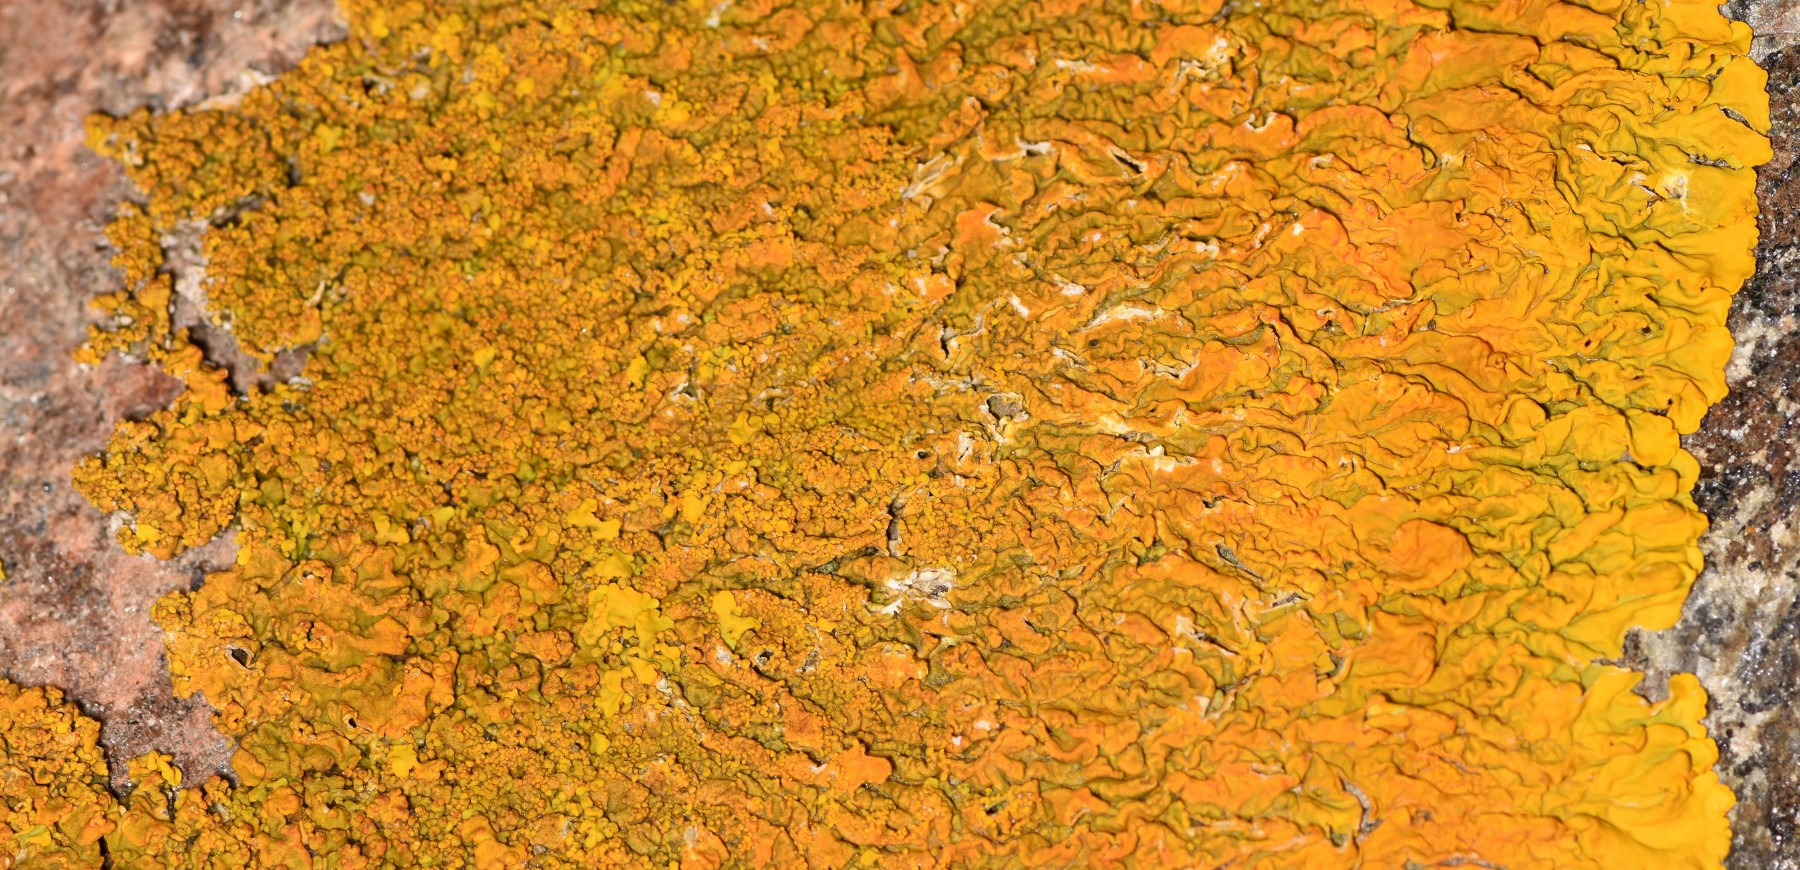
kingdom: Fungi
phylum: Ascomycota
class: Lecanoromycetes
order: Teloschistales
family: Teloschistaceae
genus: Xanthoria
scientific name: Xanthoria calcicola
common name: vortet væggelav
